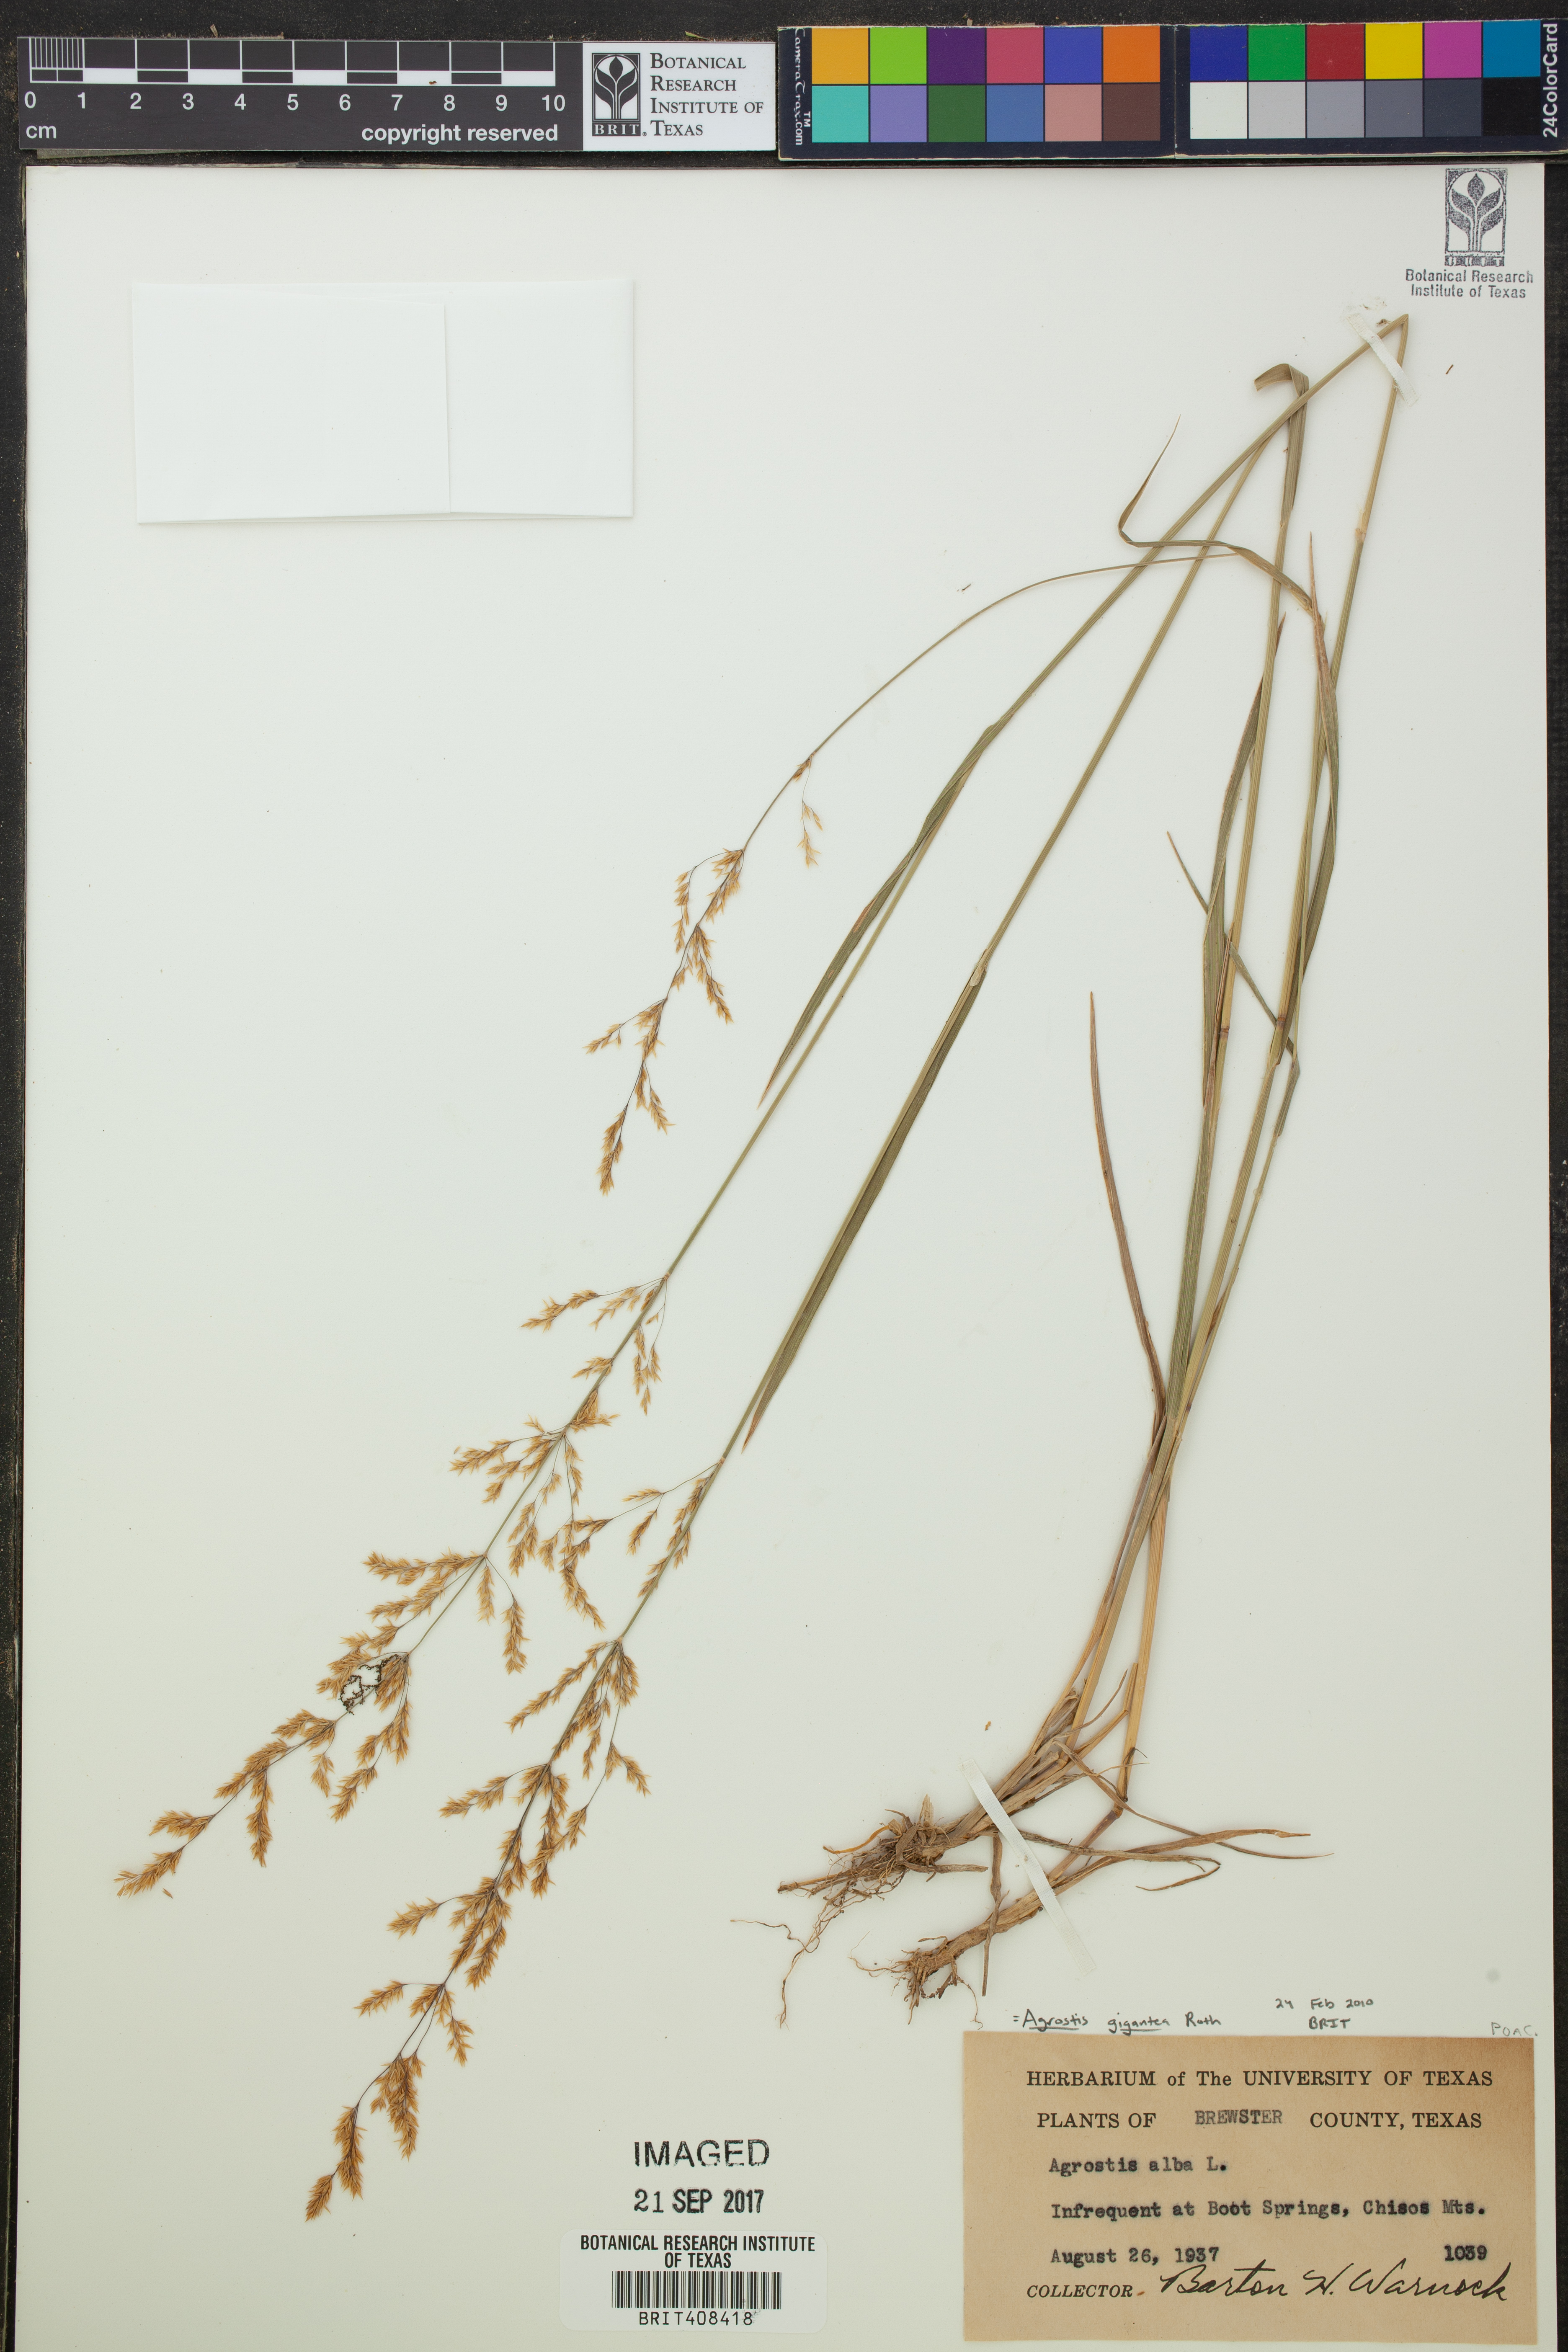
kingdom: Plantae
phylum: Tracheophyta
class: Liliopsida
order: Poales
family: Poaceae
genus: Agrostis
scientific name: Agrostis gigantea
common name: Black bent
